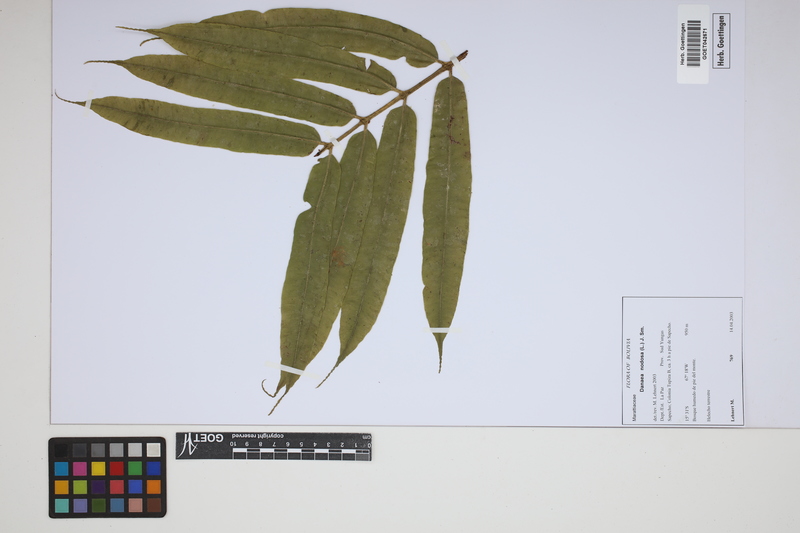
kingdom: Plantae
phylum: Tracheophyta
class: Polypodiopsida
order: Marattiales
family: Marattiaceae
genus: Danaea
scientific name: Danaea nodosa
